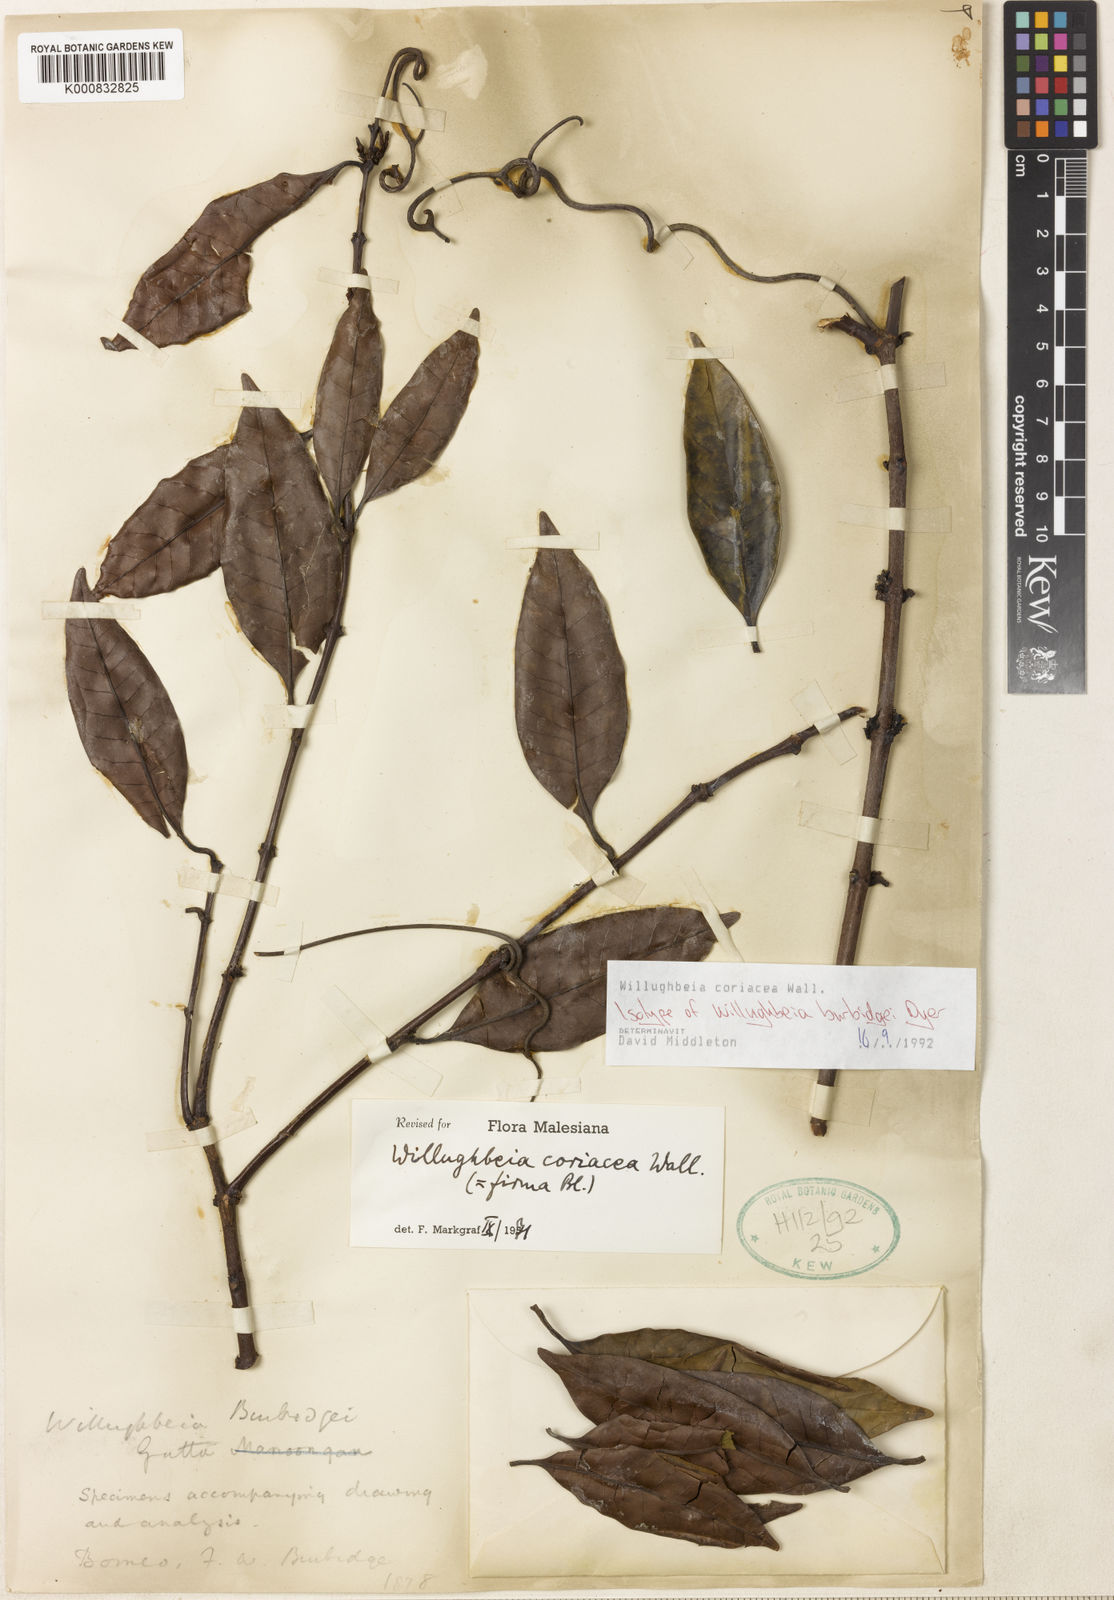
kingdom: Plantae
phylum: Tracheophyta
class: Magnoliopsida
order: Gentianales
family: Apocynaceae
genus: Willughbeia
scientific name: Willughbeia coriacea
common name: Borneo-rubber
